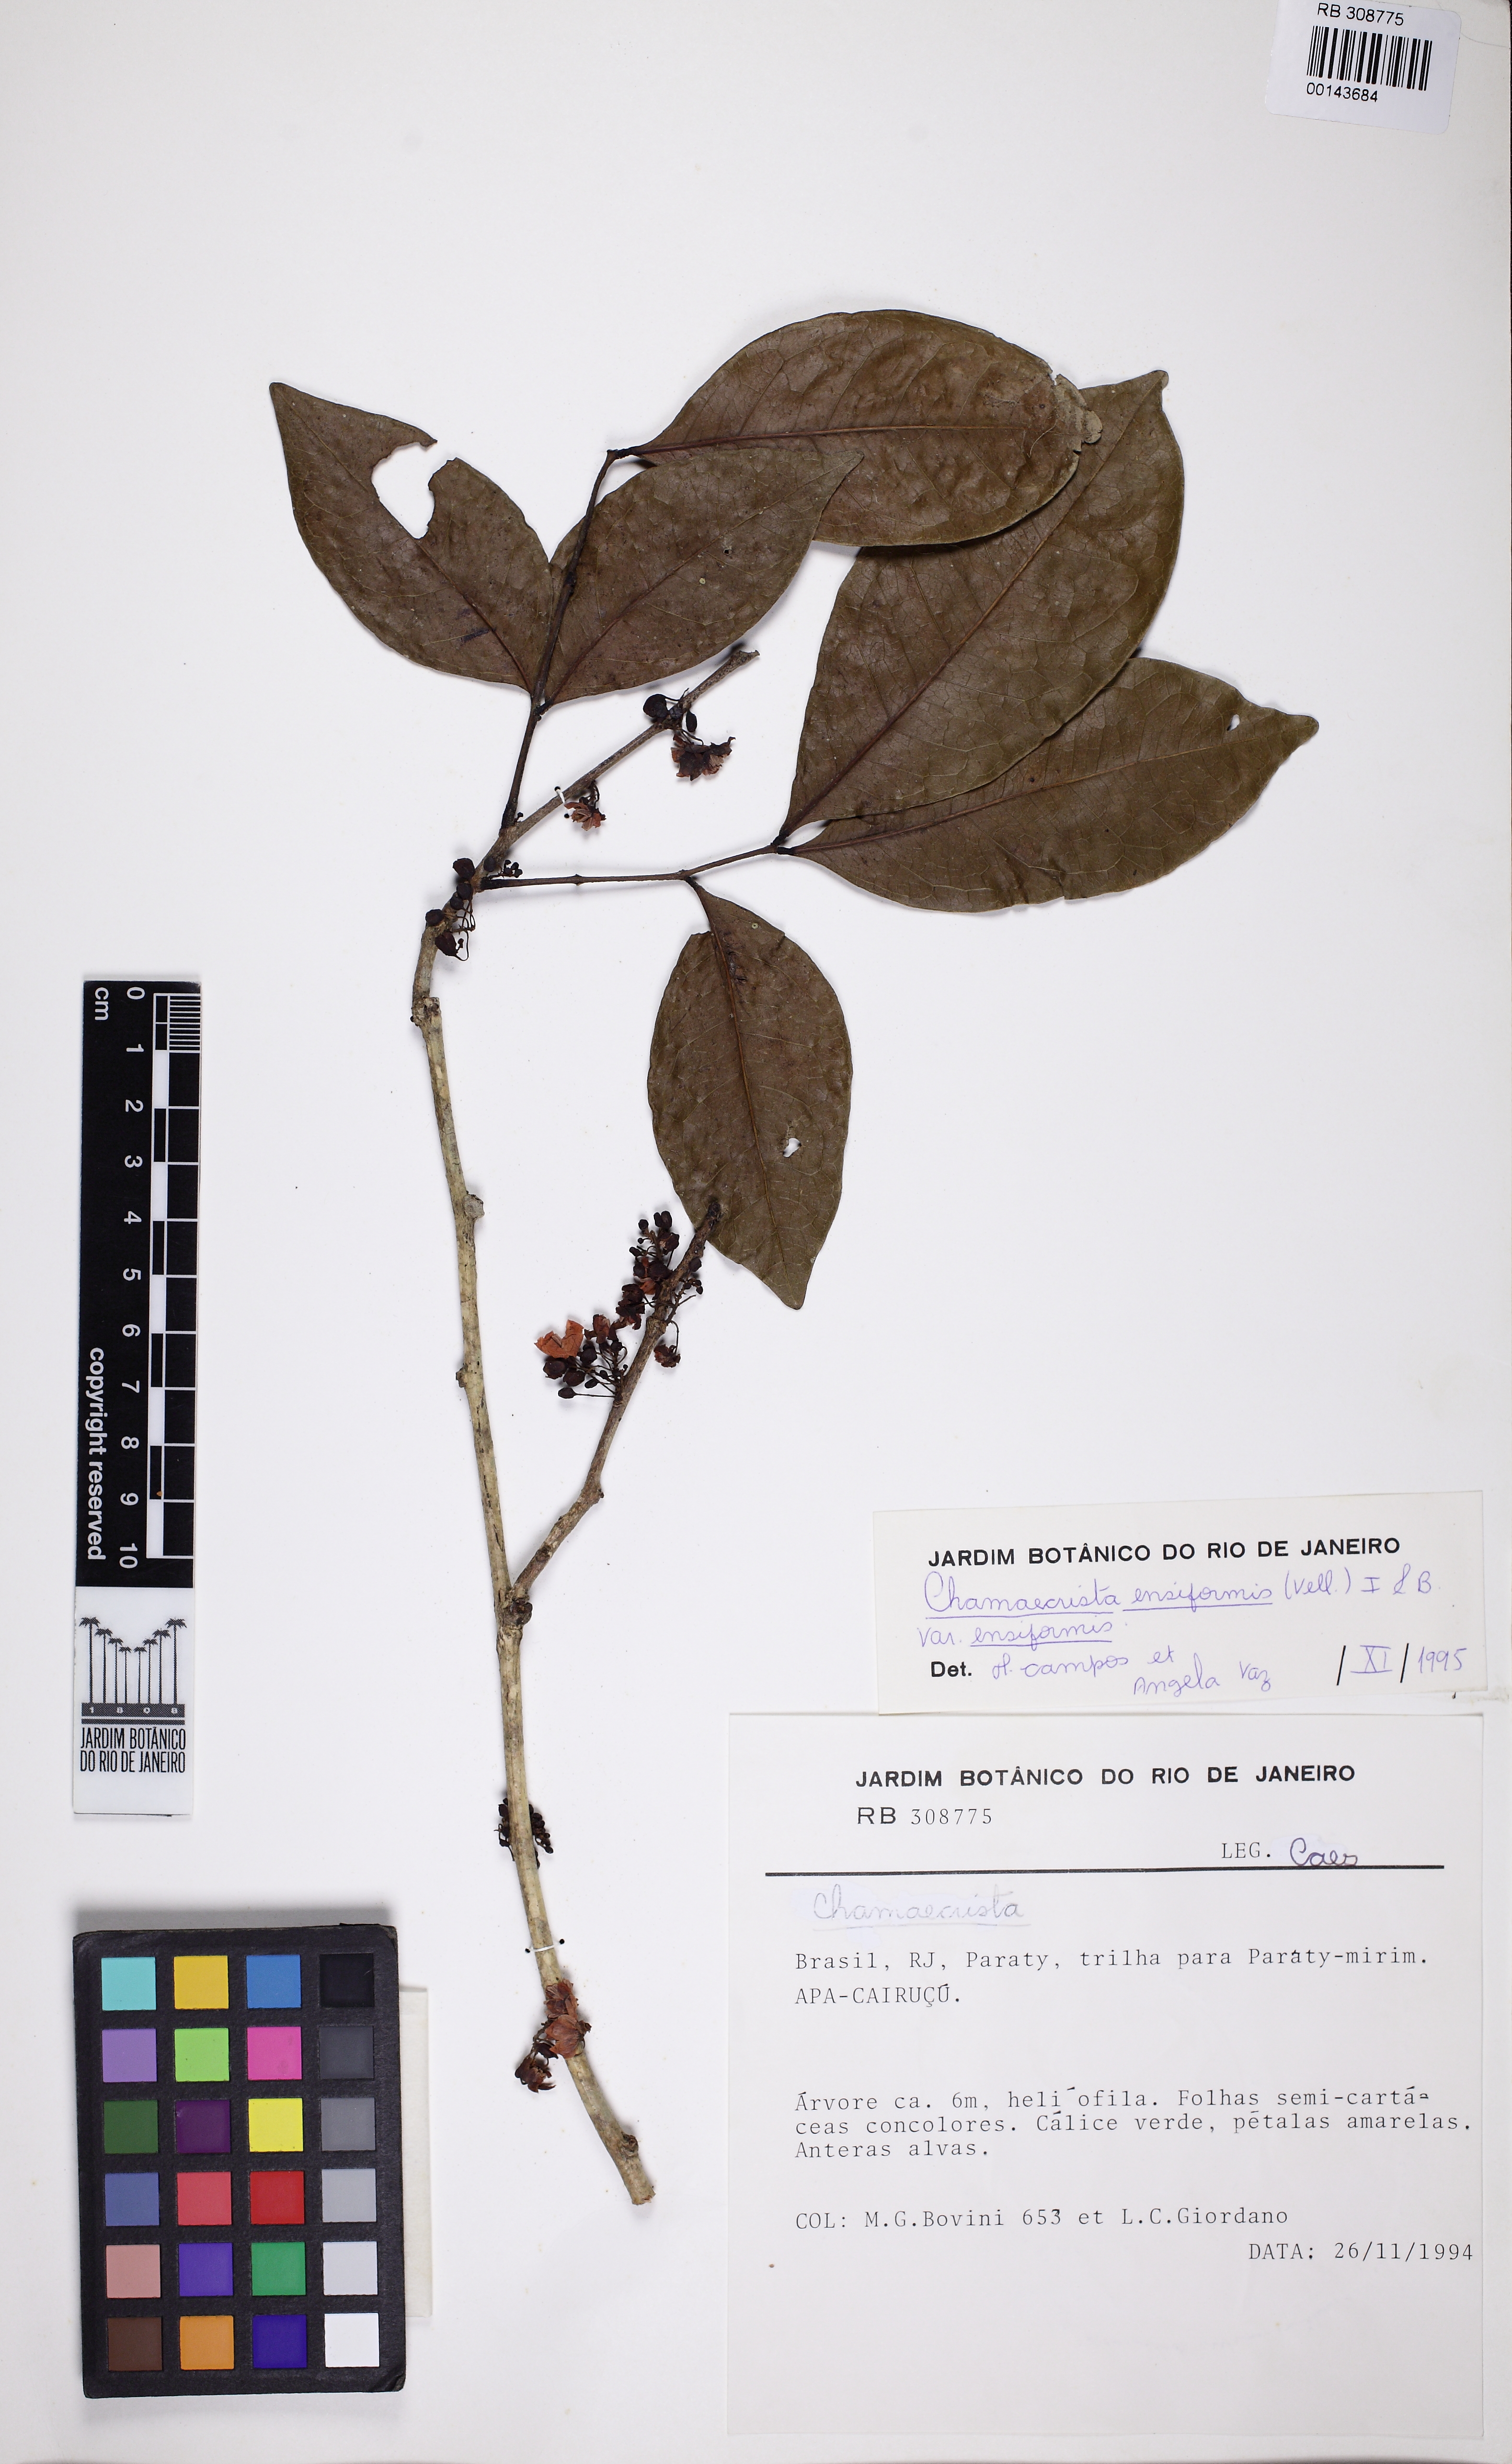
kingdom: Plantae
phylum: Tracheophyta
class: Polypodiopsida
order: Polypodiales
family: Pteridaceae
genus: Doryopteris
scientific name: Doryopteris sagittifolia
